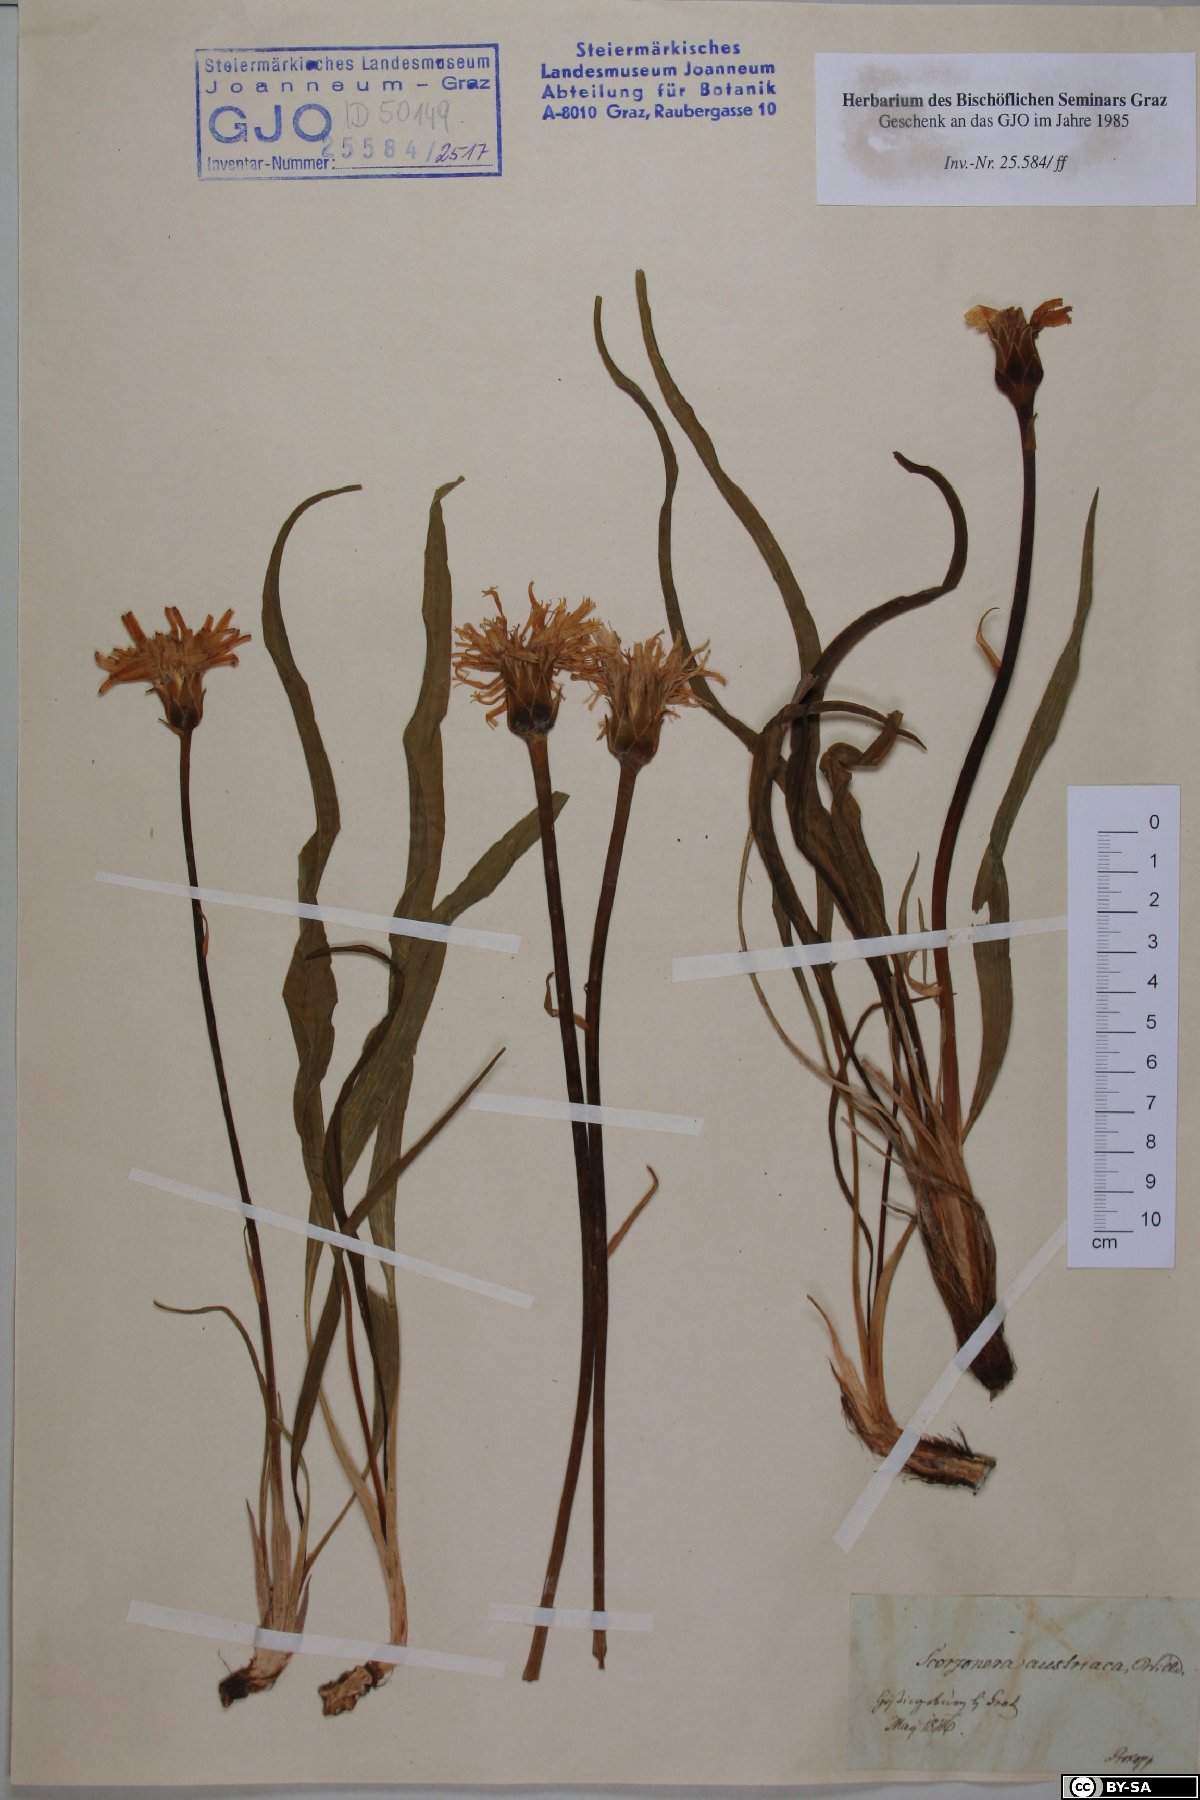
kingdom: Plantae
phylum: Tracheophyta
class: Magnoliopsida
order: Asterales
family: Asteraceae
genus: Takhtajaniantha
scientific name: Takhtajaniantha austriaca
